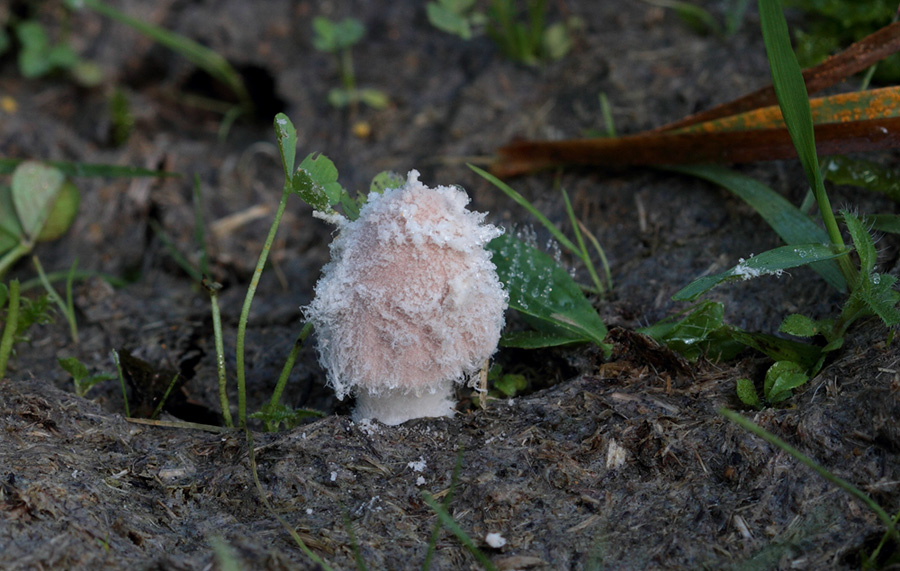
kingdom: Fungi
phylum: Basidiomycota
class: Agaricomycetes
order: Agaricales
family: Psathyrellaceae
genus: Coprinopsis
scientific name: Coprinopsis pseudonivea
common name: pudret blækhat
